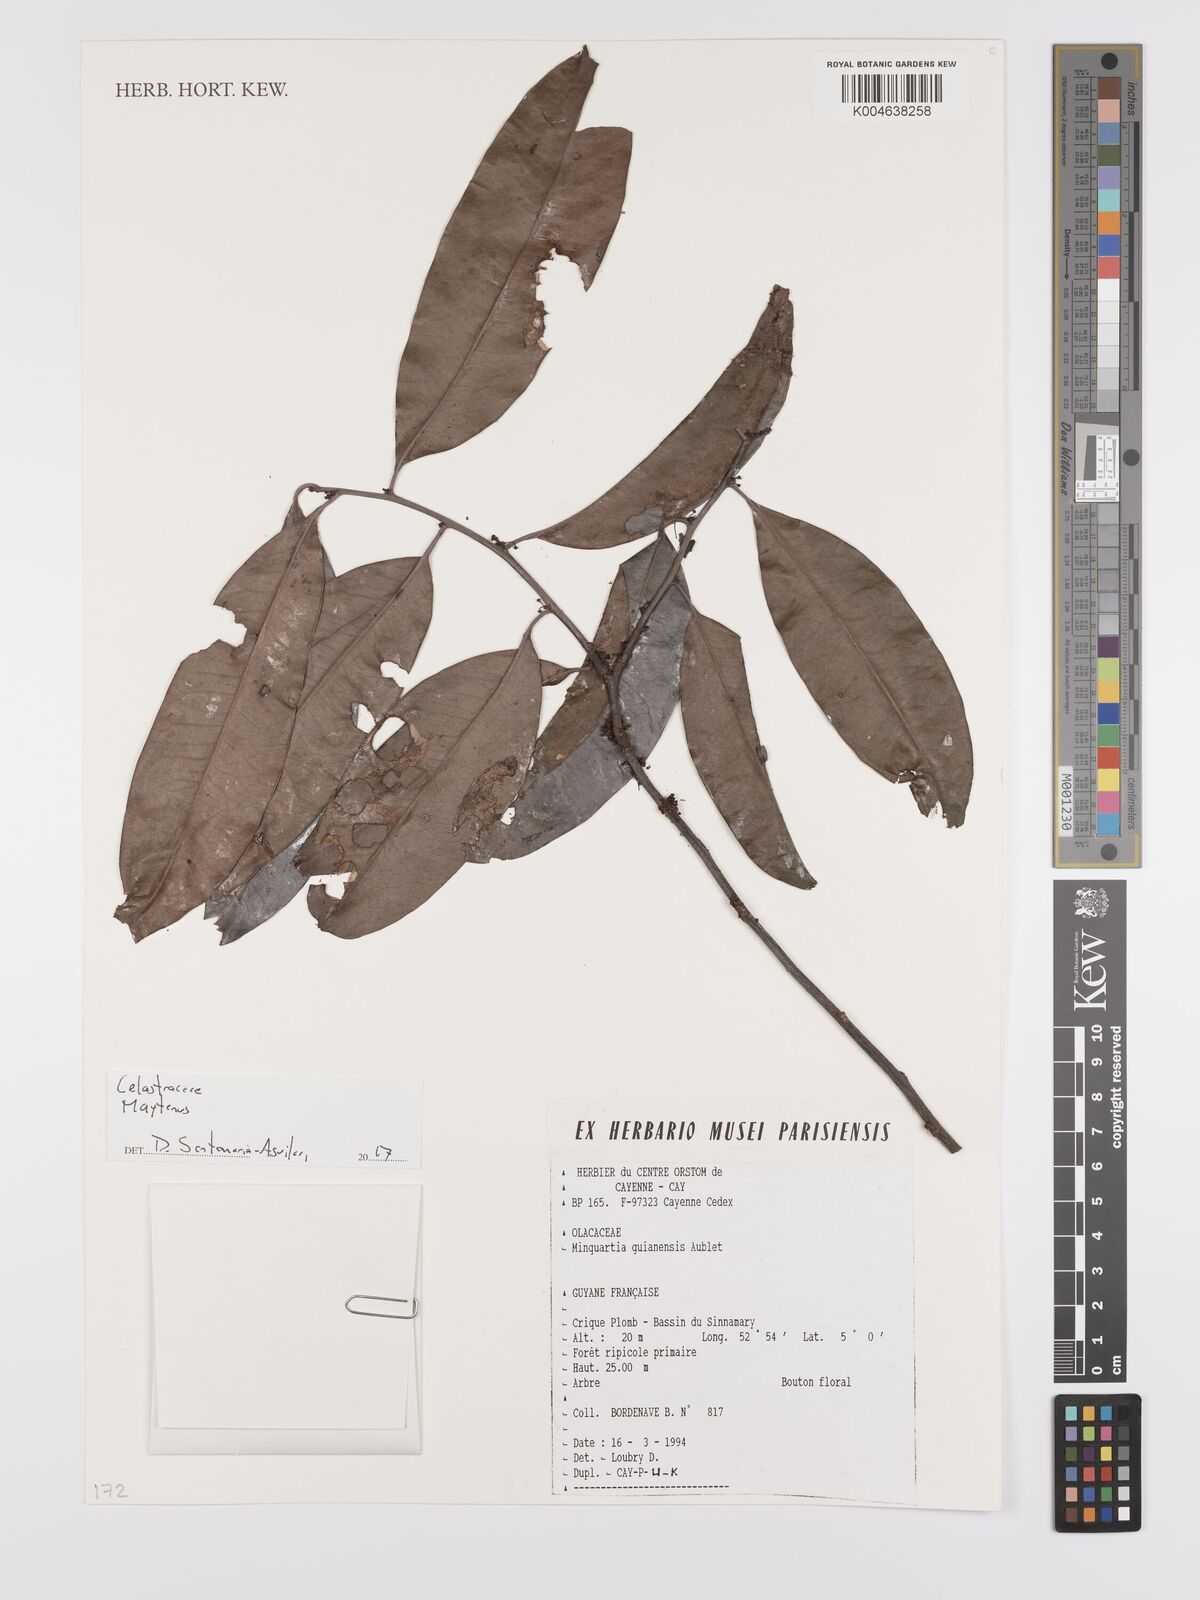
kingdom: Plantae
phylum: Tracheophyta
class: Magnoliopsida
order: Celastrales
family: Celastraceae
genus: Maytenus
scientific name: Maytenus
